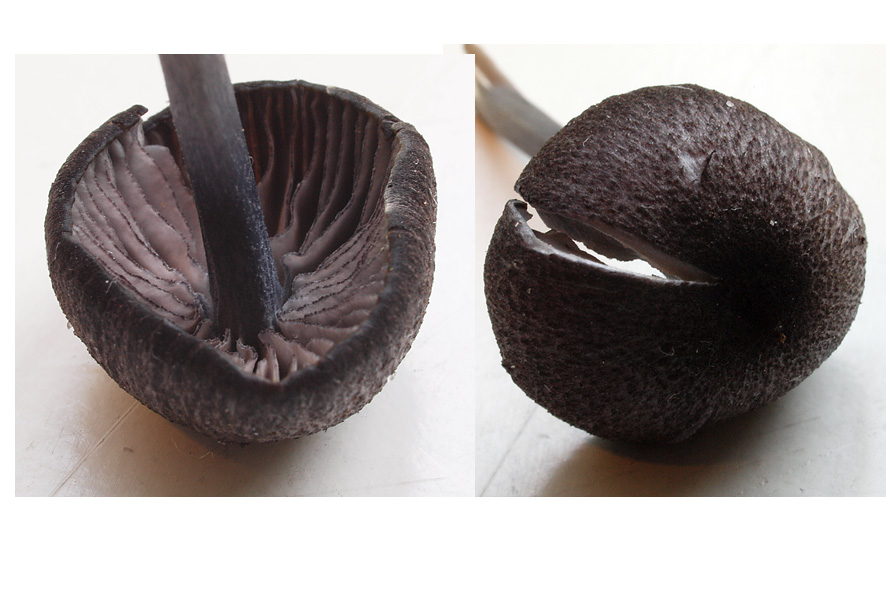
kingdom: Fungi
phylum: Basidiomycota
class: Agaricomycetes
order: Agaricales
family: Entolomataceae
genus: Entoloma
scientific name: Entoloma
